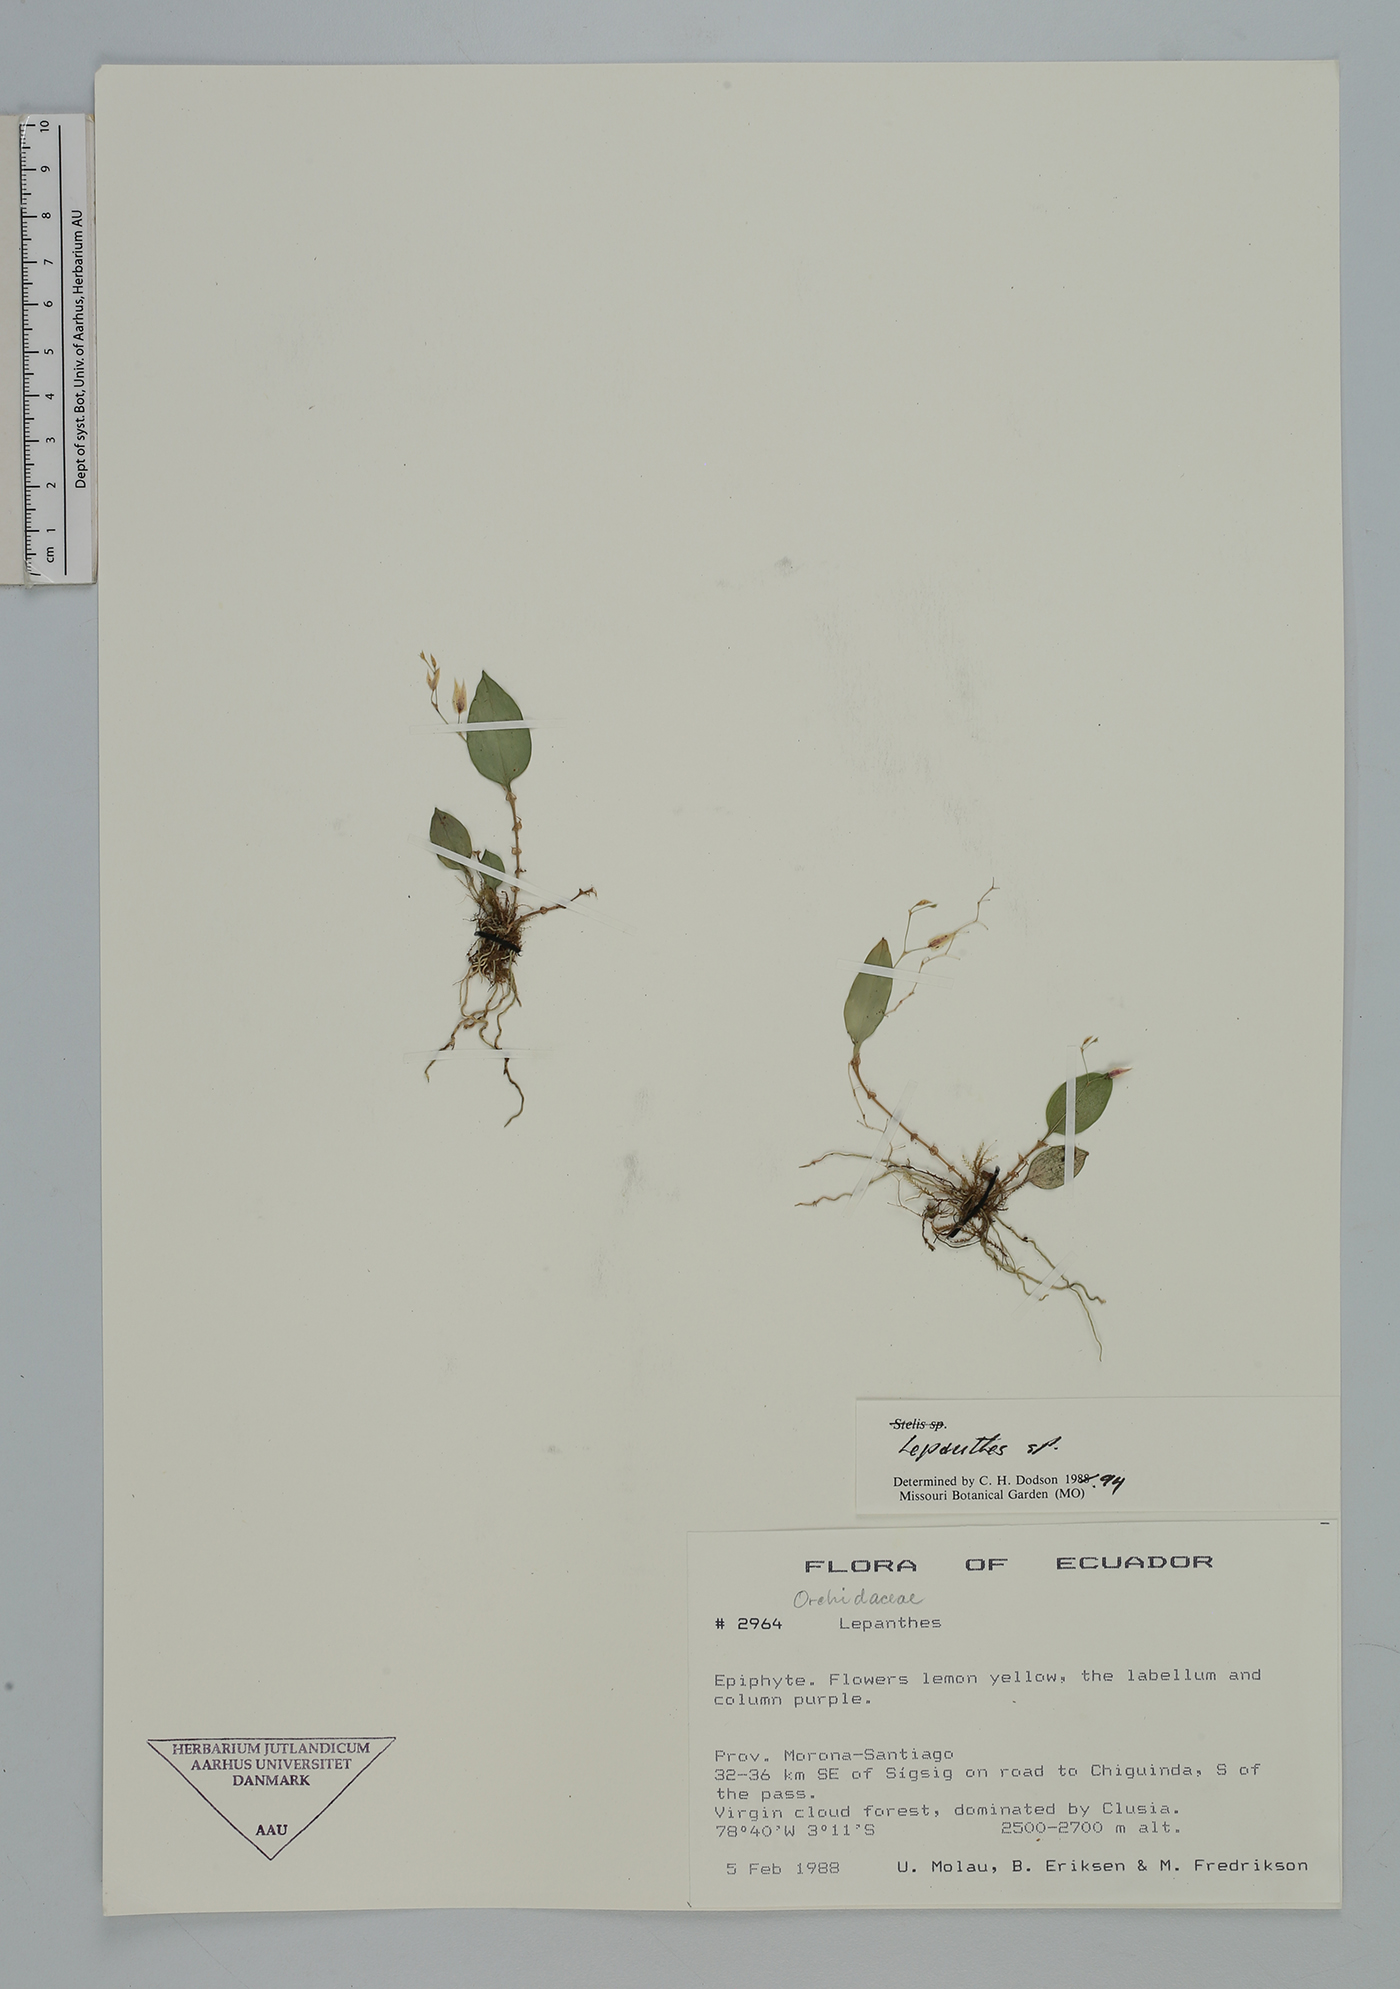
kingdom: Plantae
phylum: Tracheophyta
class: Liliopsida
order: Asparagales
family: Orchidaceae
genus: Lepanthes
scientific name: Lepanthes
